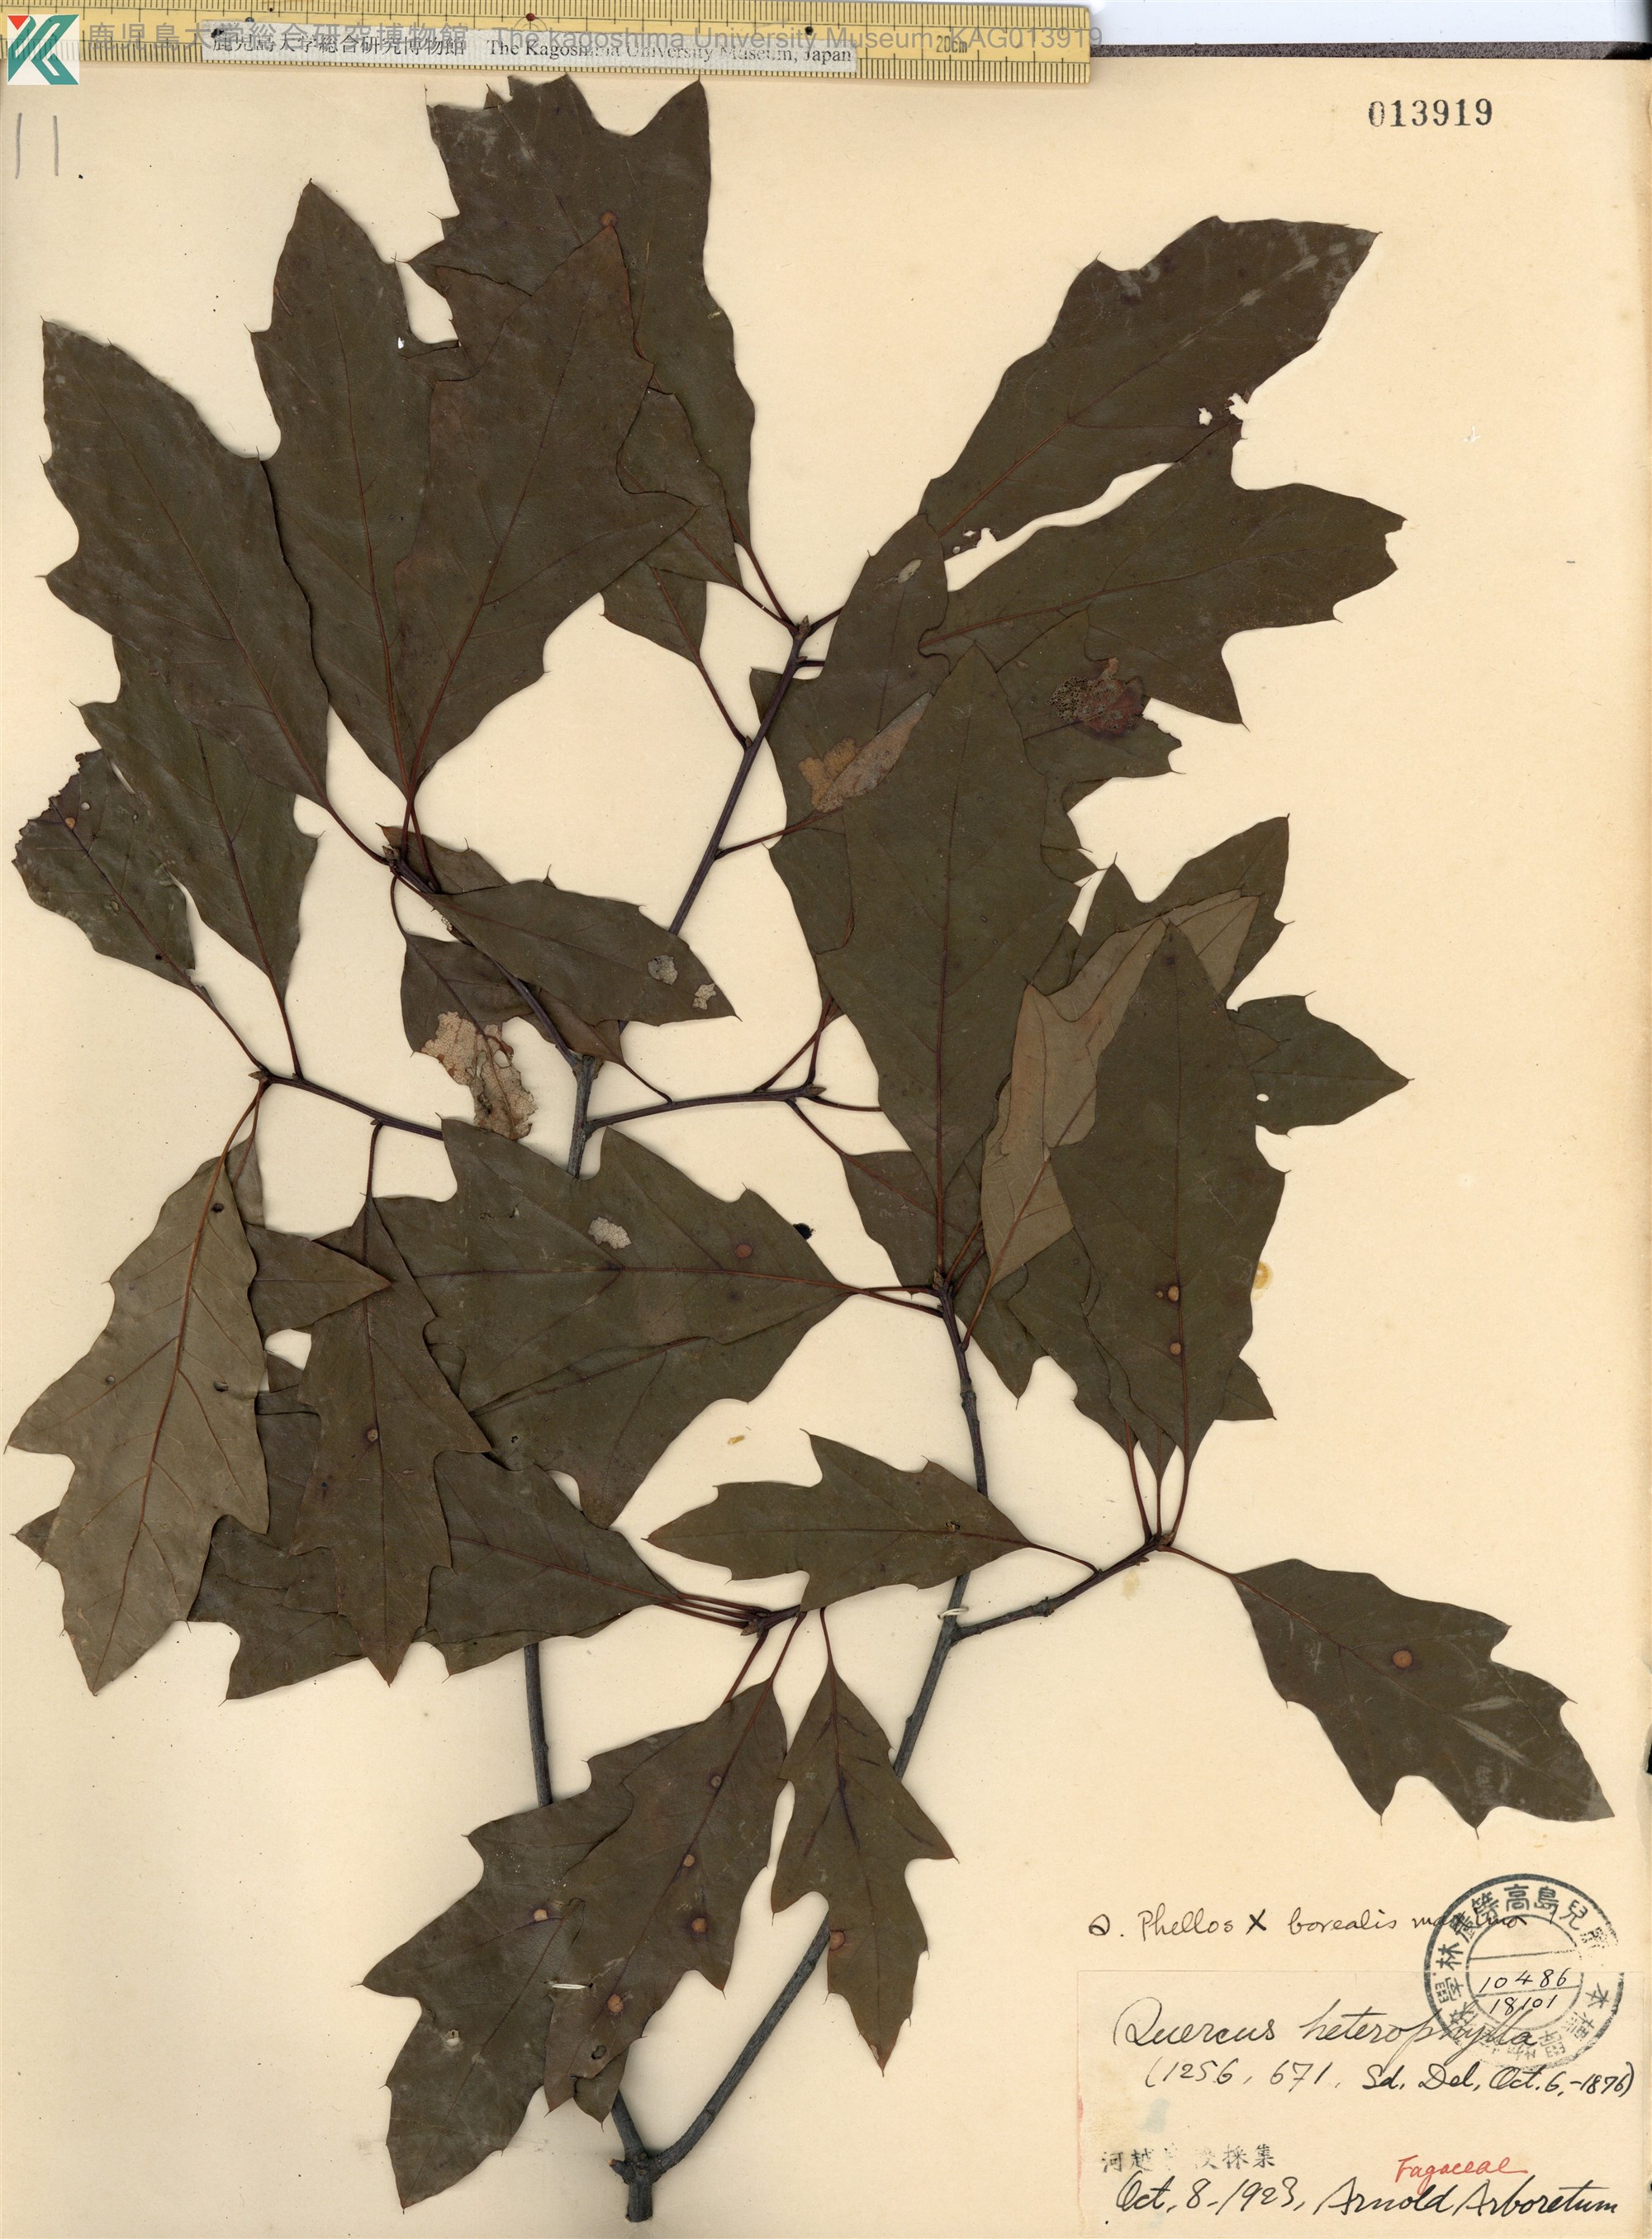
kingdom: Plantae
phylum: Tracheophyta
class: Magnoliopsida
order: Fagales
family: Fagaceae
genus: Quercus
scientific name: Quercus cerris
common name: Turkey oak
